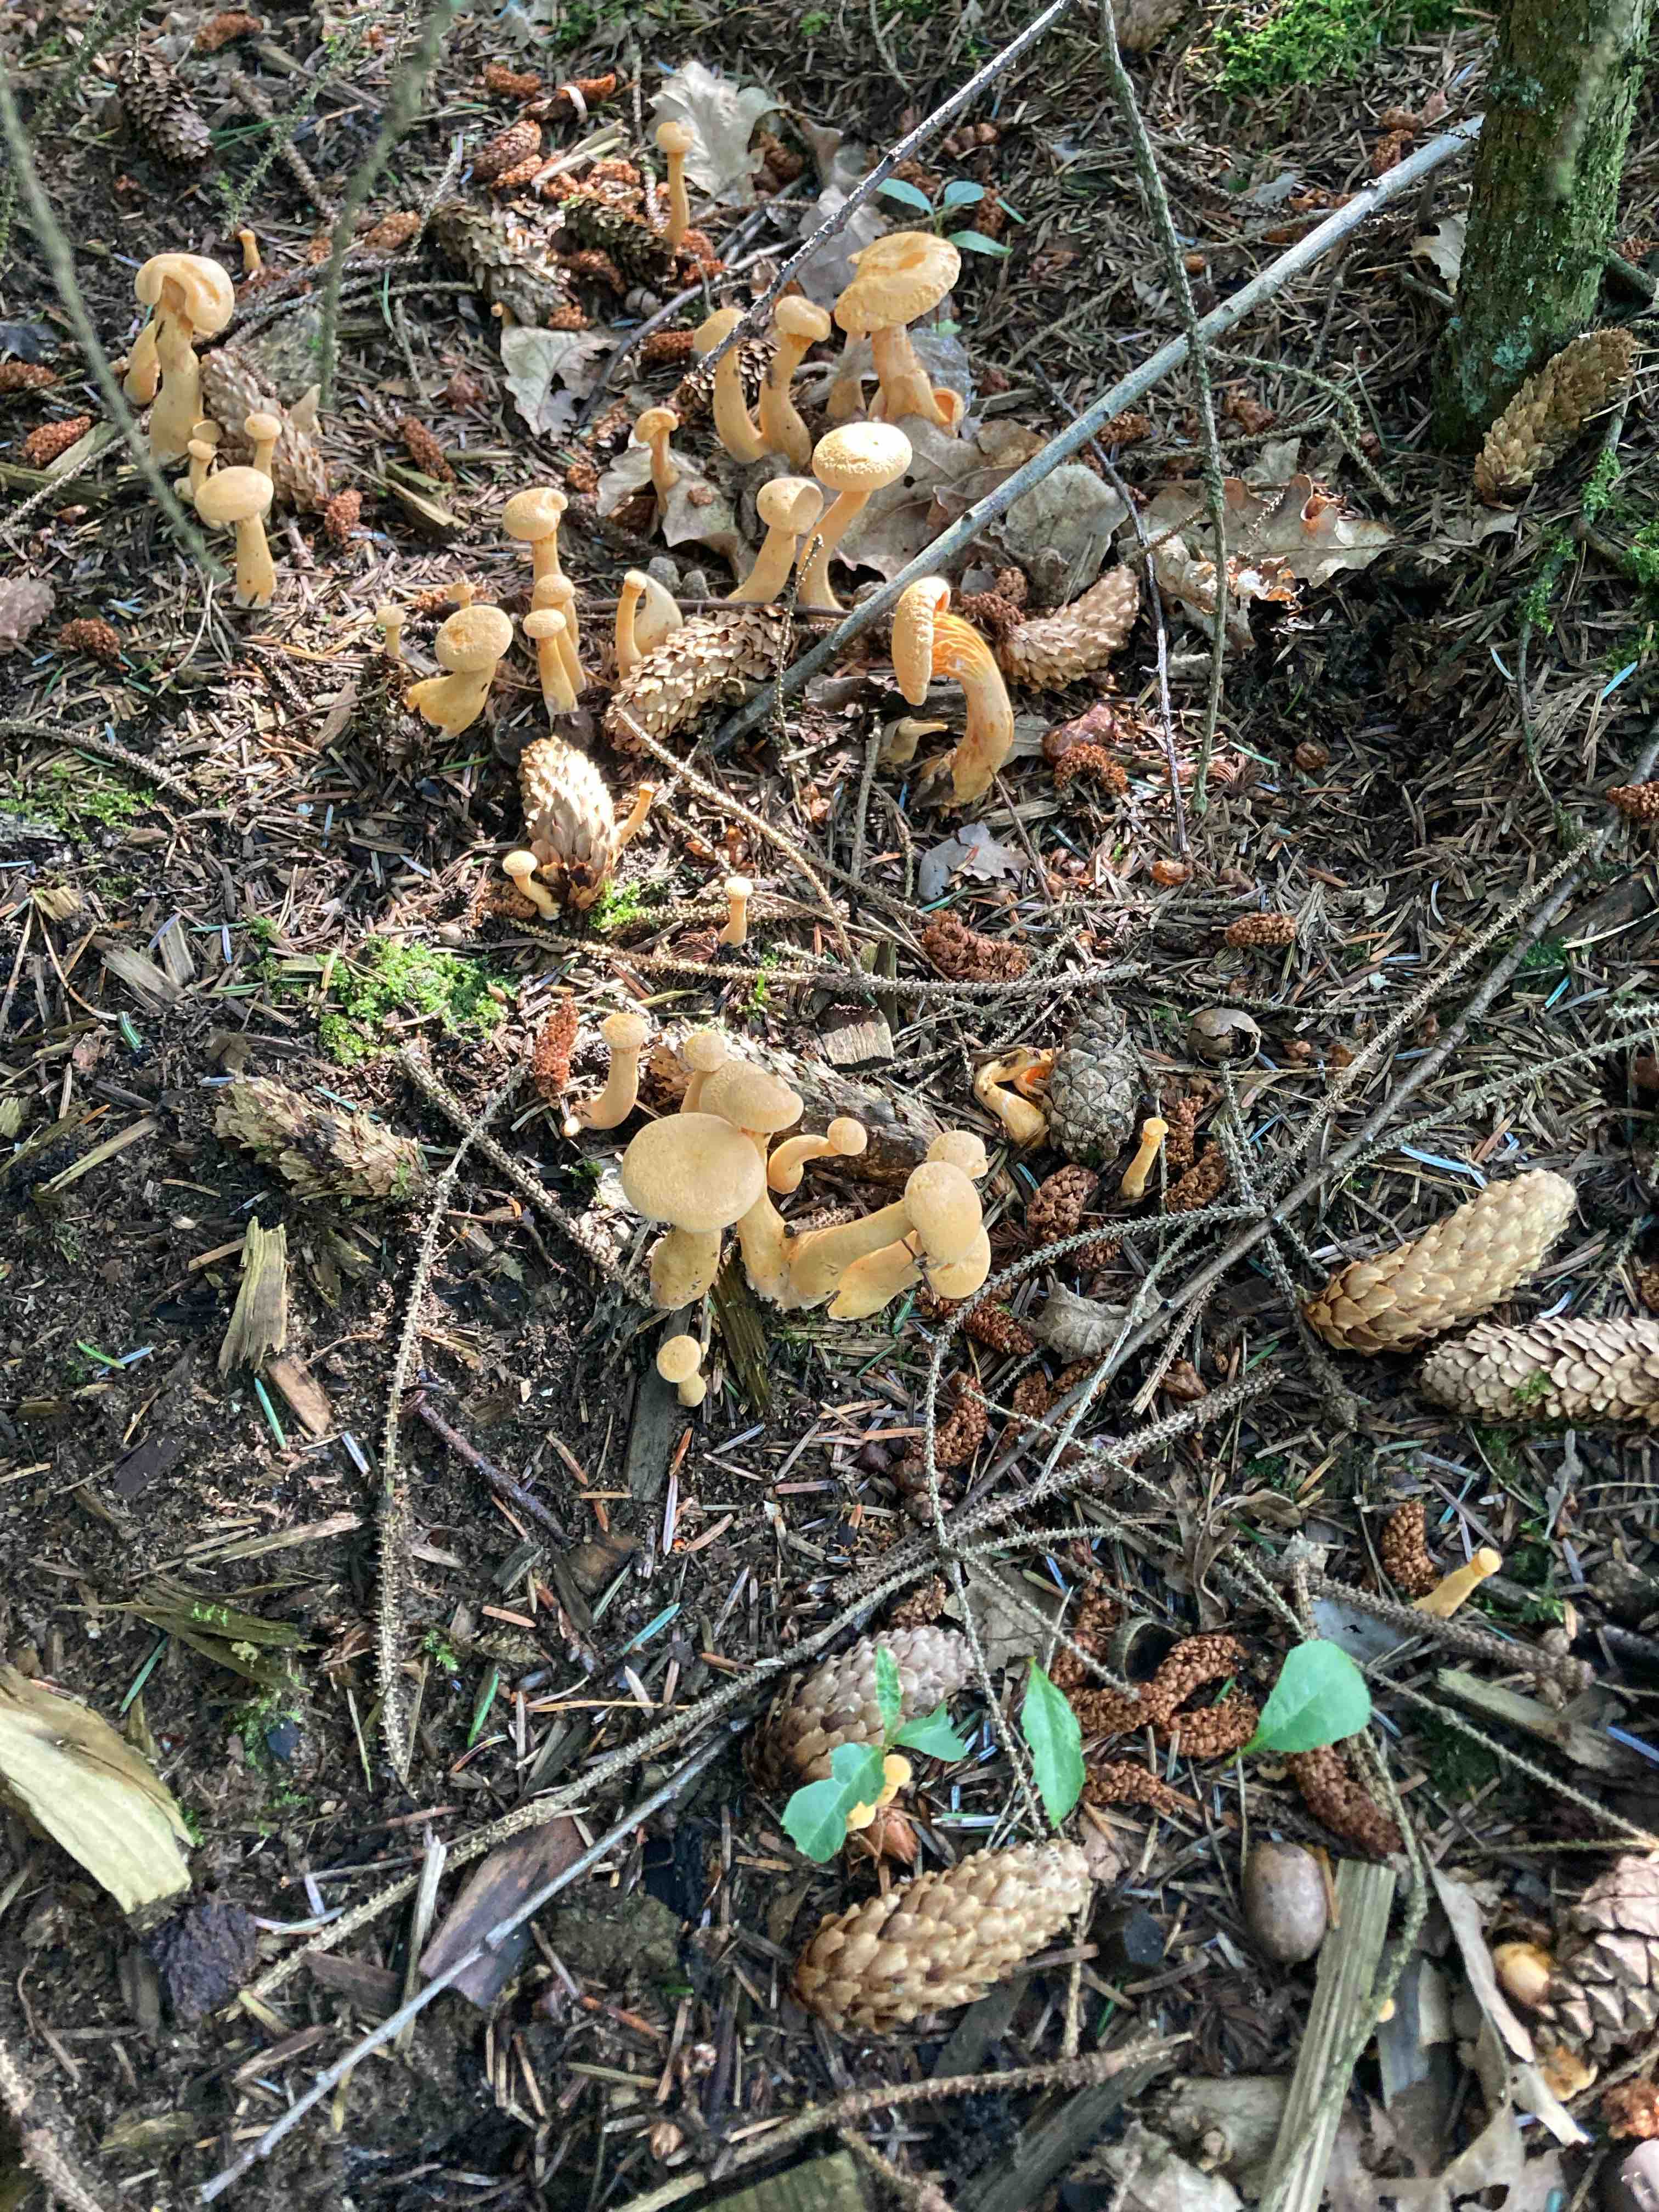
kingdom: Fungi
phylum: Basidiomycota
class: Agaricomycetes
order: Boletales
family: Hygrophoropsidaceae
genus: Hygrophoropsis
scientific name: Hygrophoropsis aurantiaca
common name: almindelig orangekantarel
